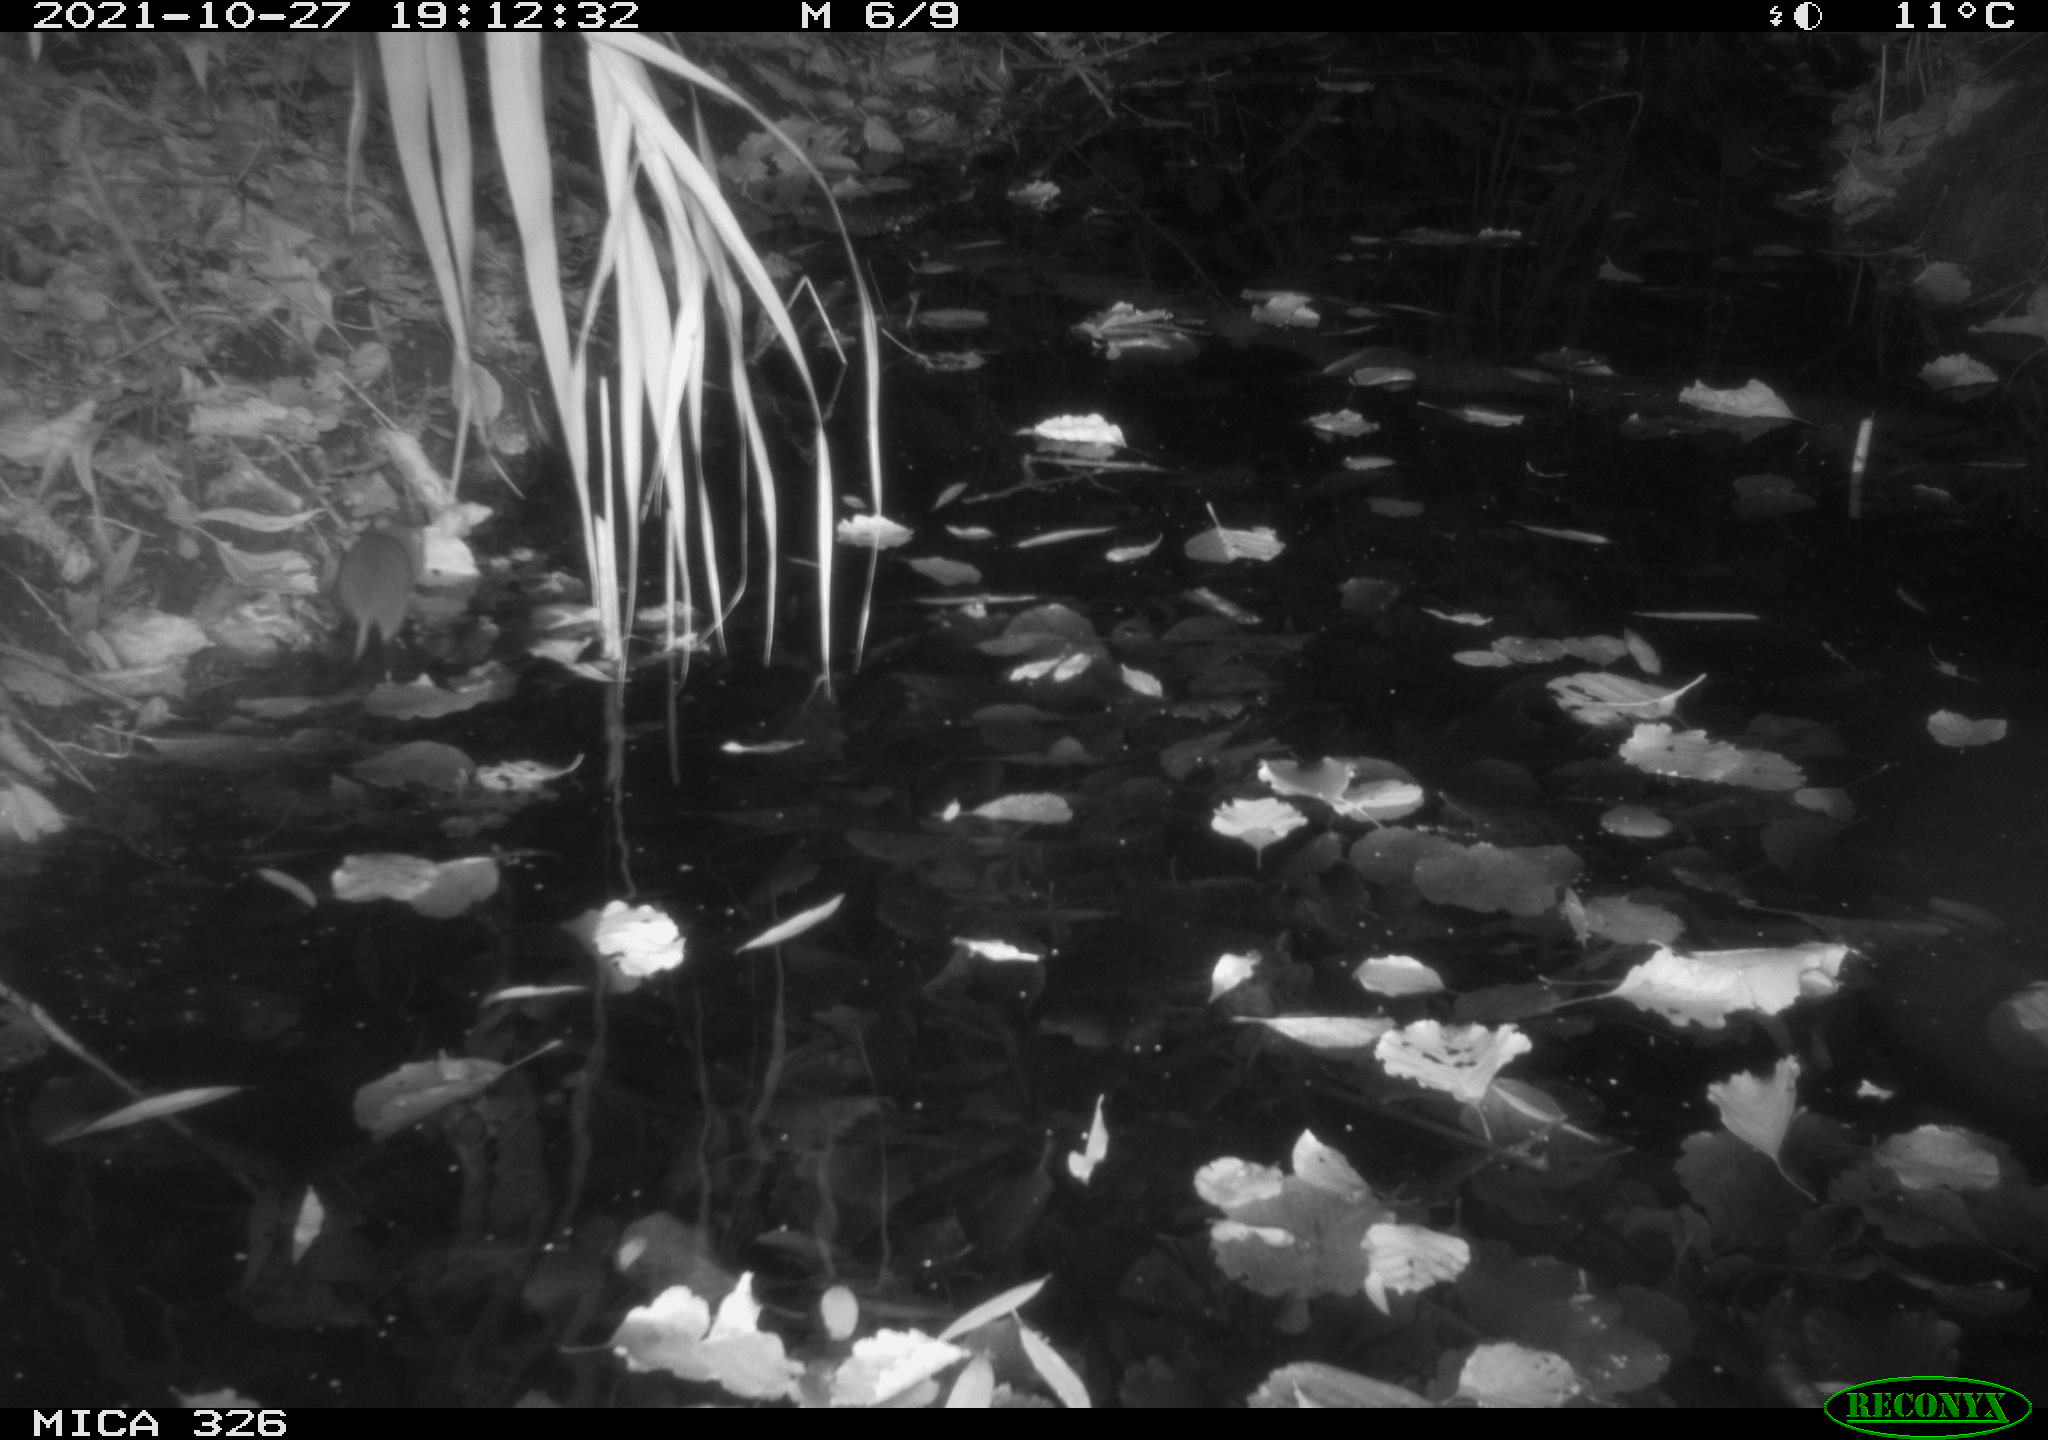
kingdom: Animalia
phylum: Chordata
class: Mammalia
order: Rodentia
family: Muridae
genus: Rattus
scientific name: Rattus norvegicus
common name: Brown rat
